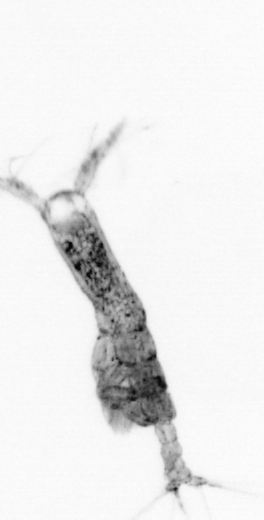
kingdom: Animalia
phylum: Arthropoda
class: Copepoda
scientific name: Copepoda
